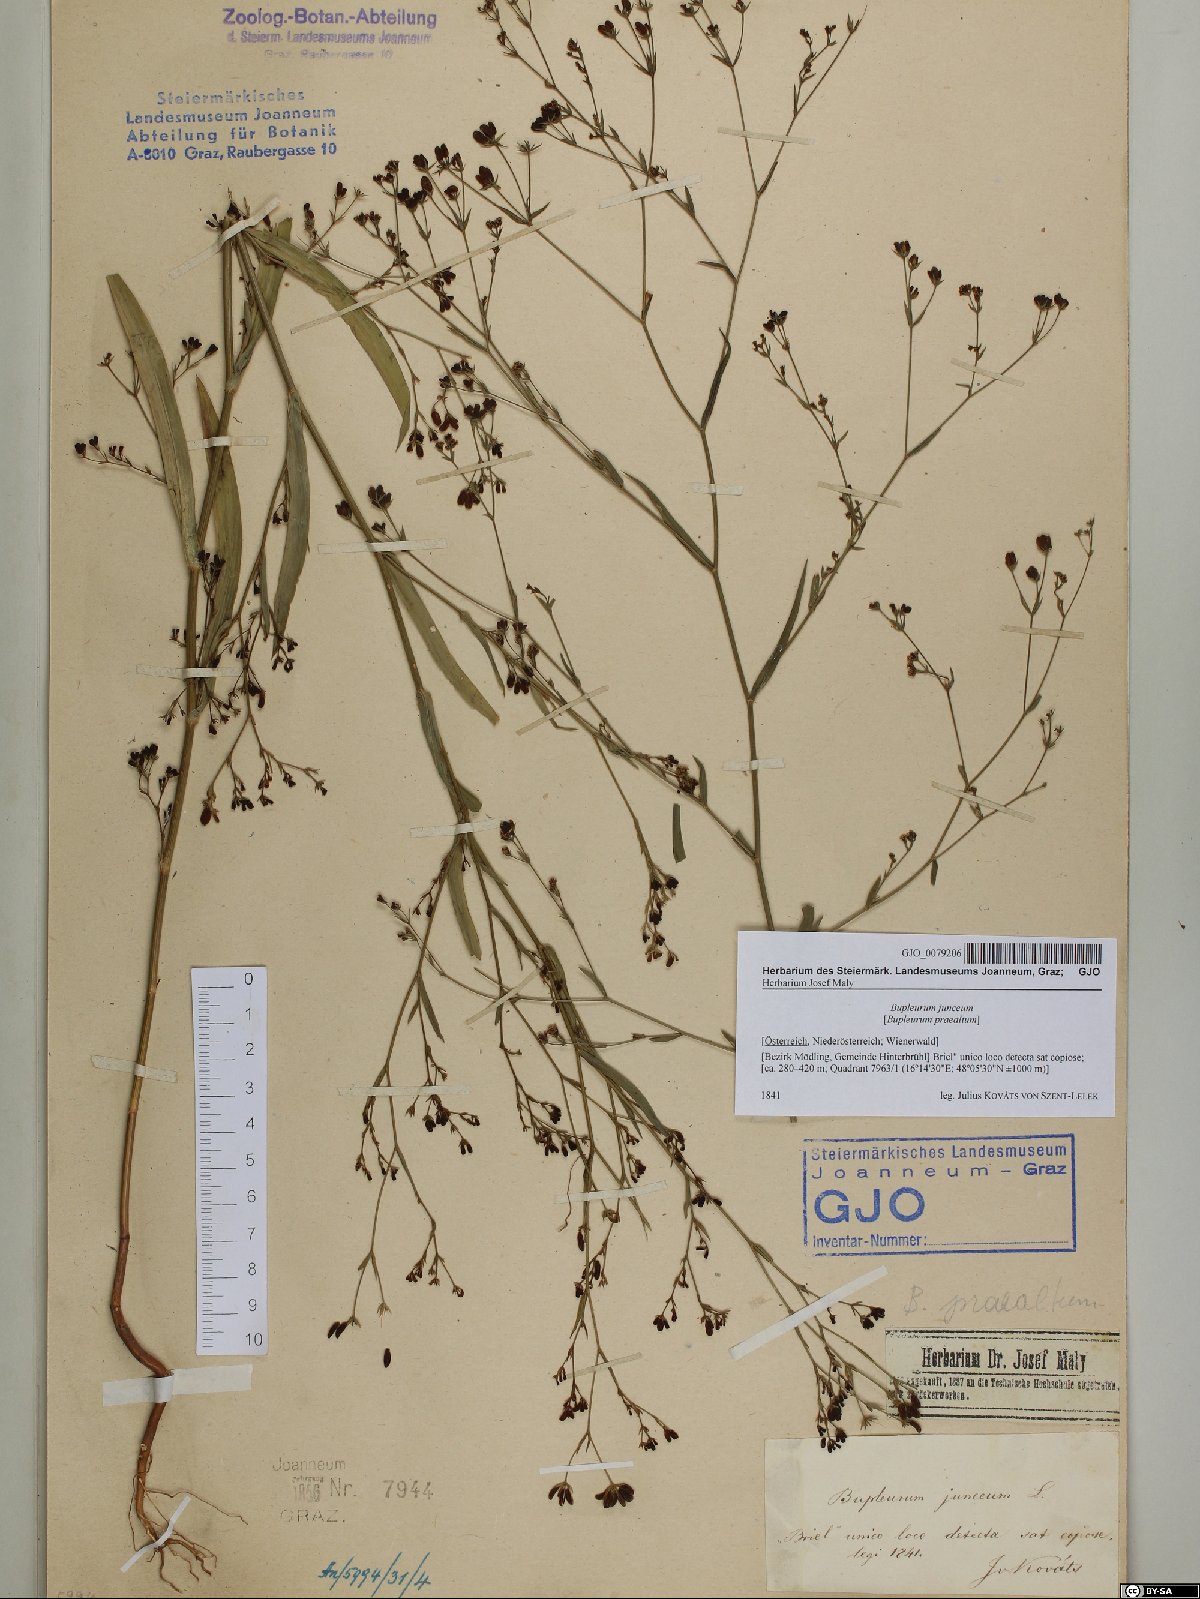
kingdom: Plantae
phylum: Tracheophyta
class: Magnoliopsida
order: Apiales
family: Apiaceae
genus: Bupleurum
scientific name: Bupleurum praealtum
